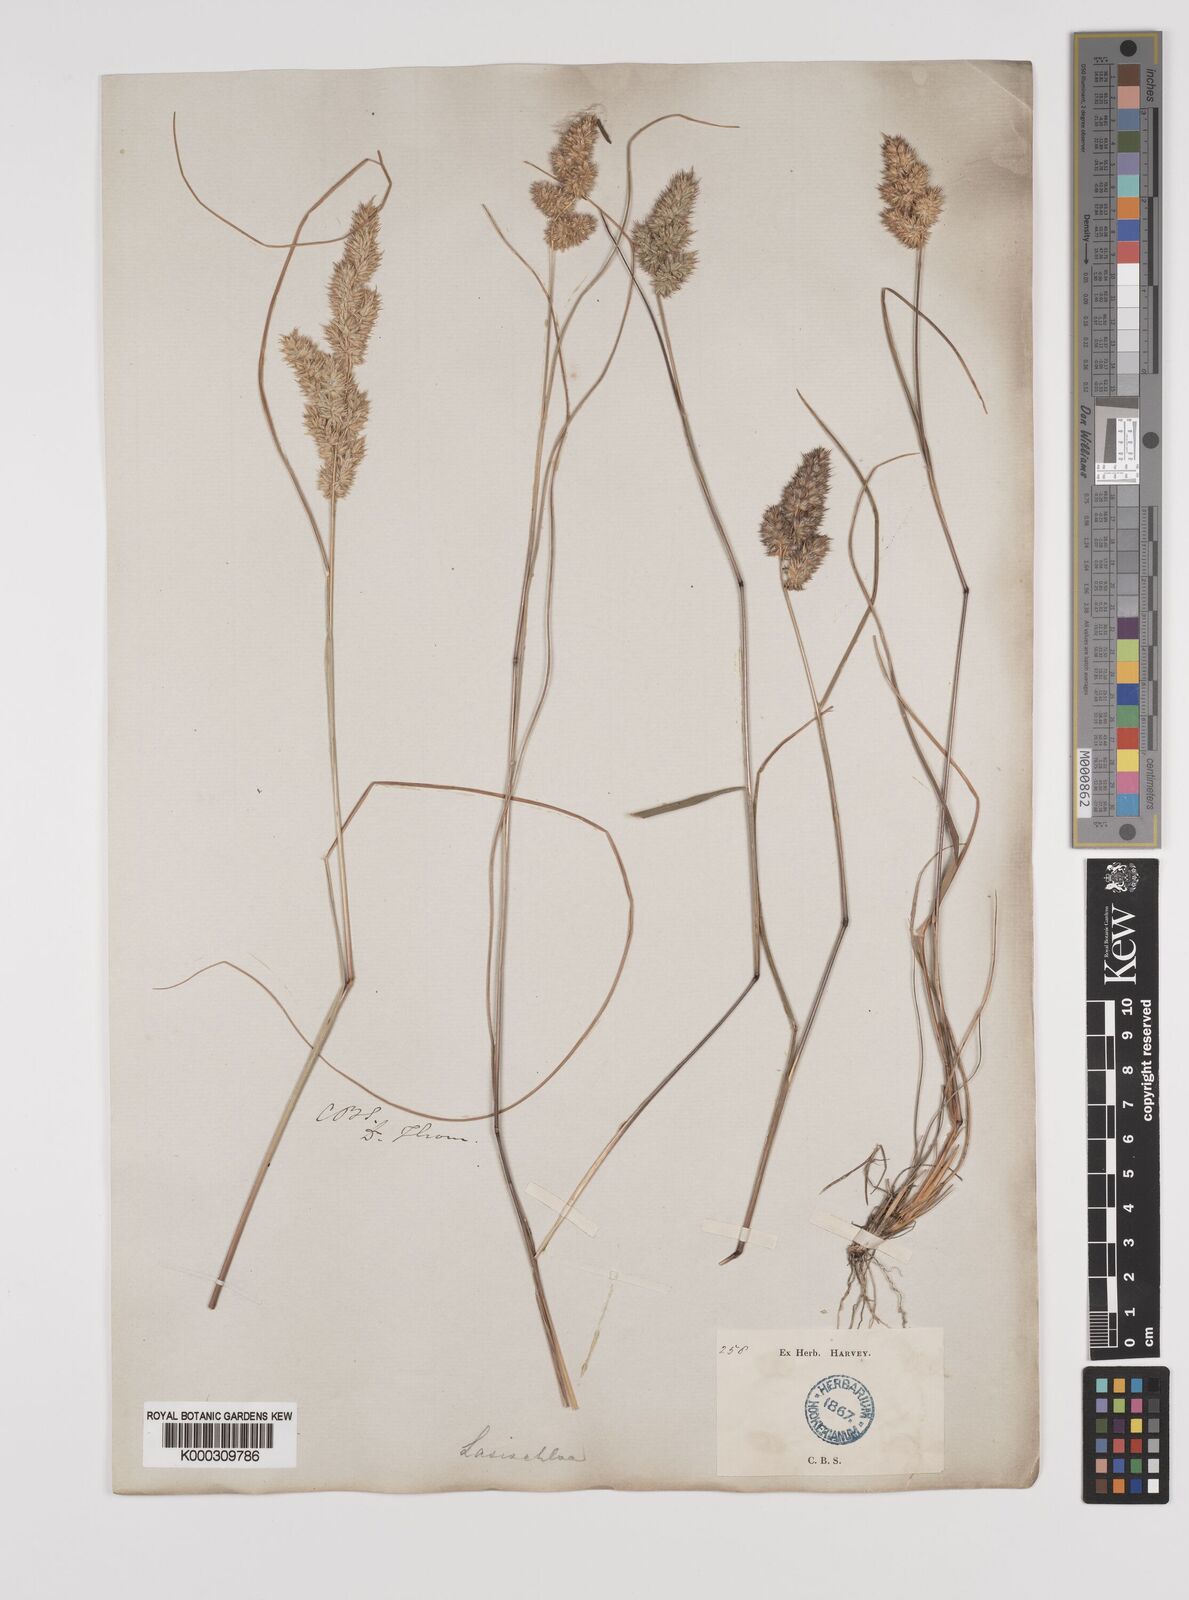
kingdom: Plantae
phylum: Tracheophyta
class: Liliopsida
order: Poales
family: Poaceae
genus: Tribolium
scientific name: Tribolium hispidum
